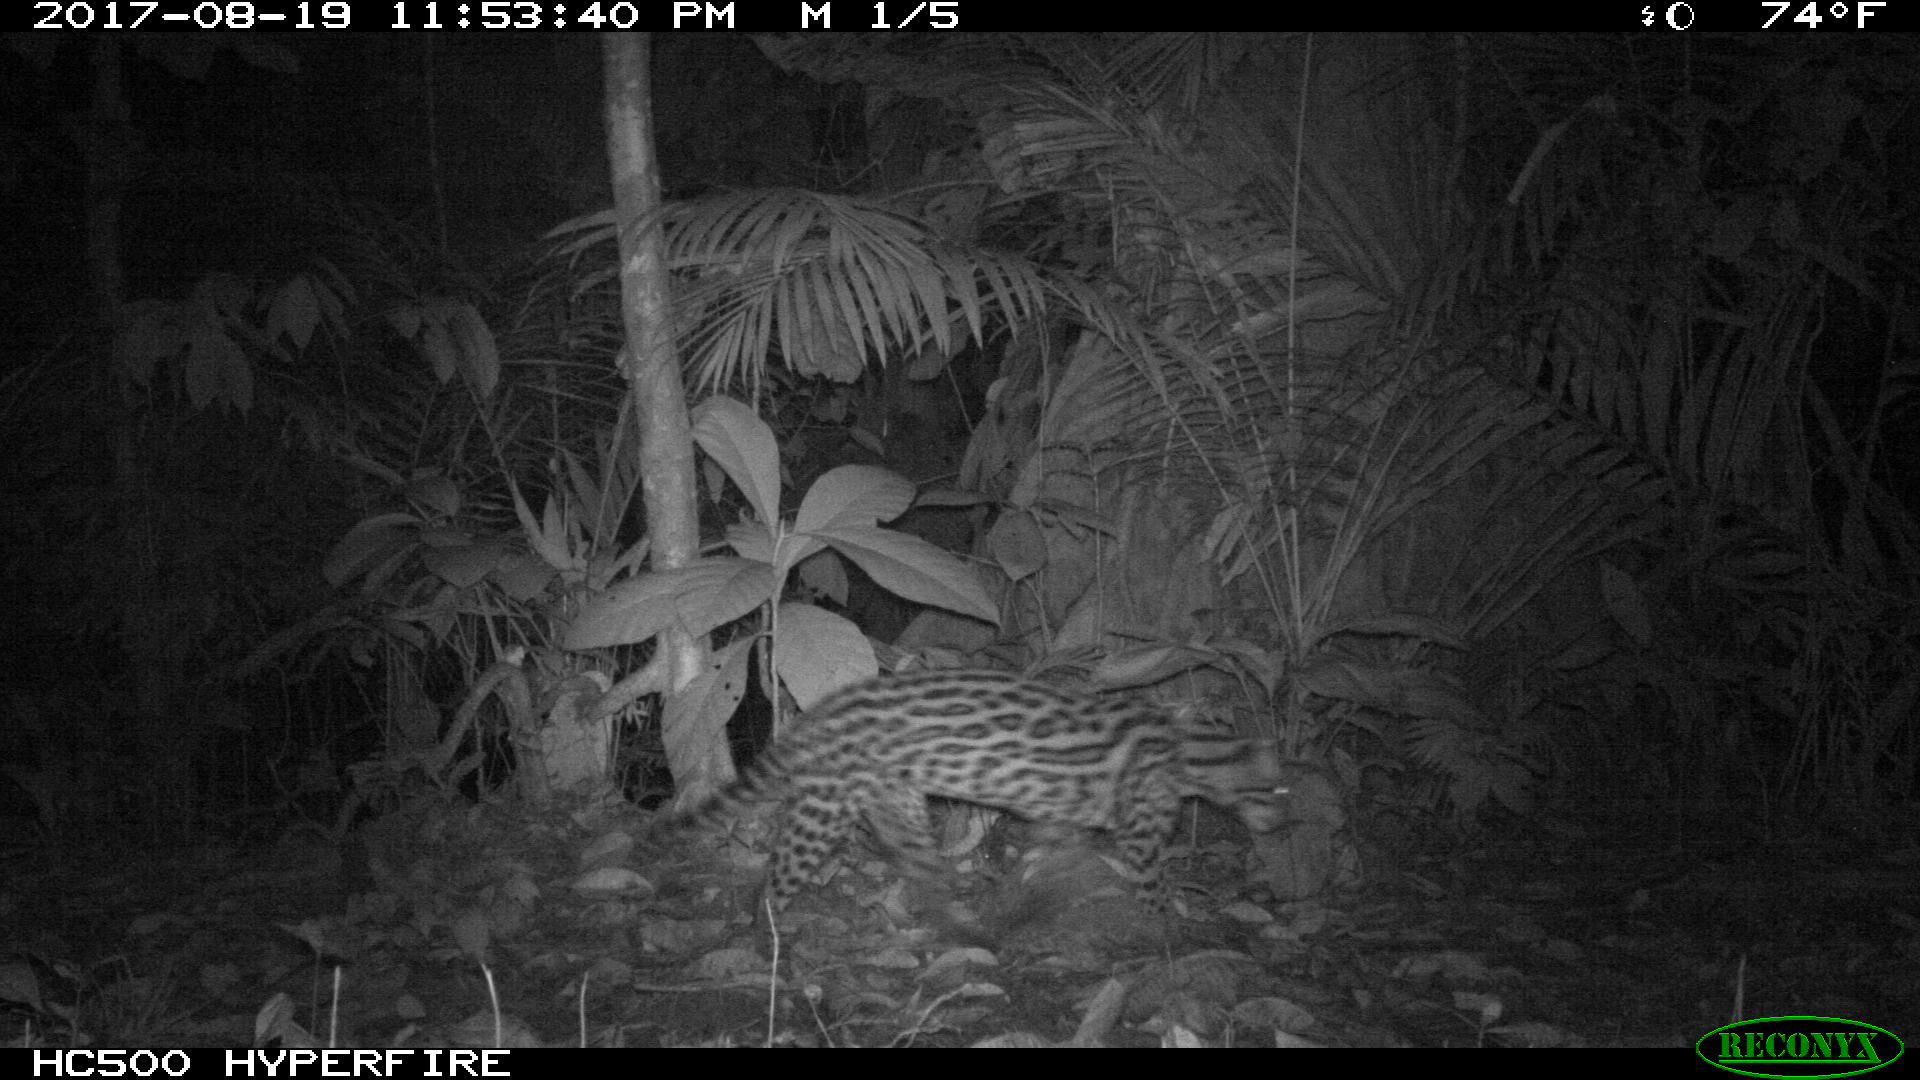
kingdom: Animalia
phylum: Chordata
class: Mammalia
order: Carnivora
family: Felidae
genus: Leopardus
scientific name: Leopardus pardalis
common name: Ocelot
